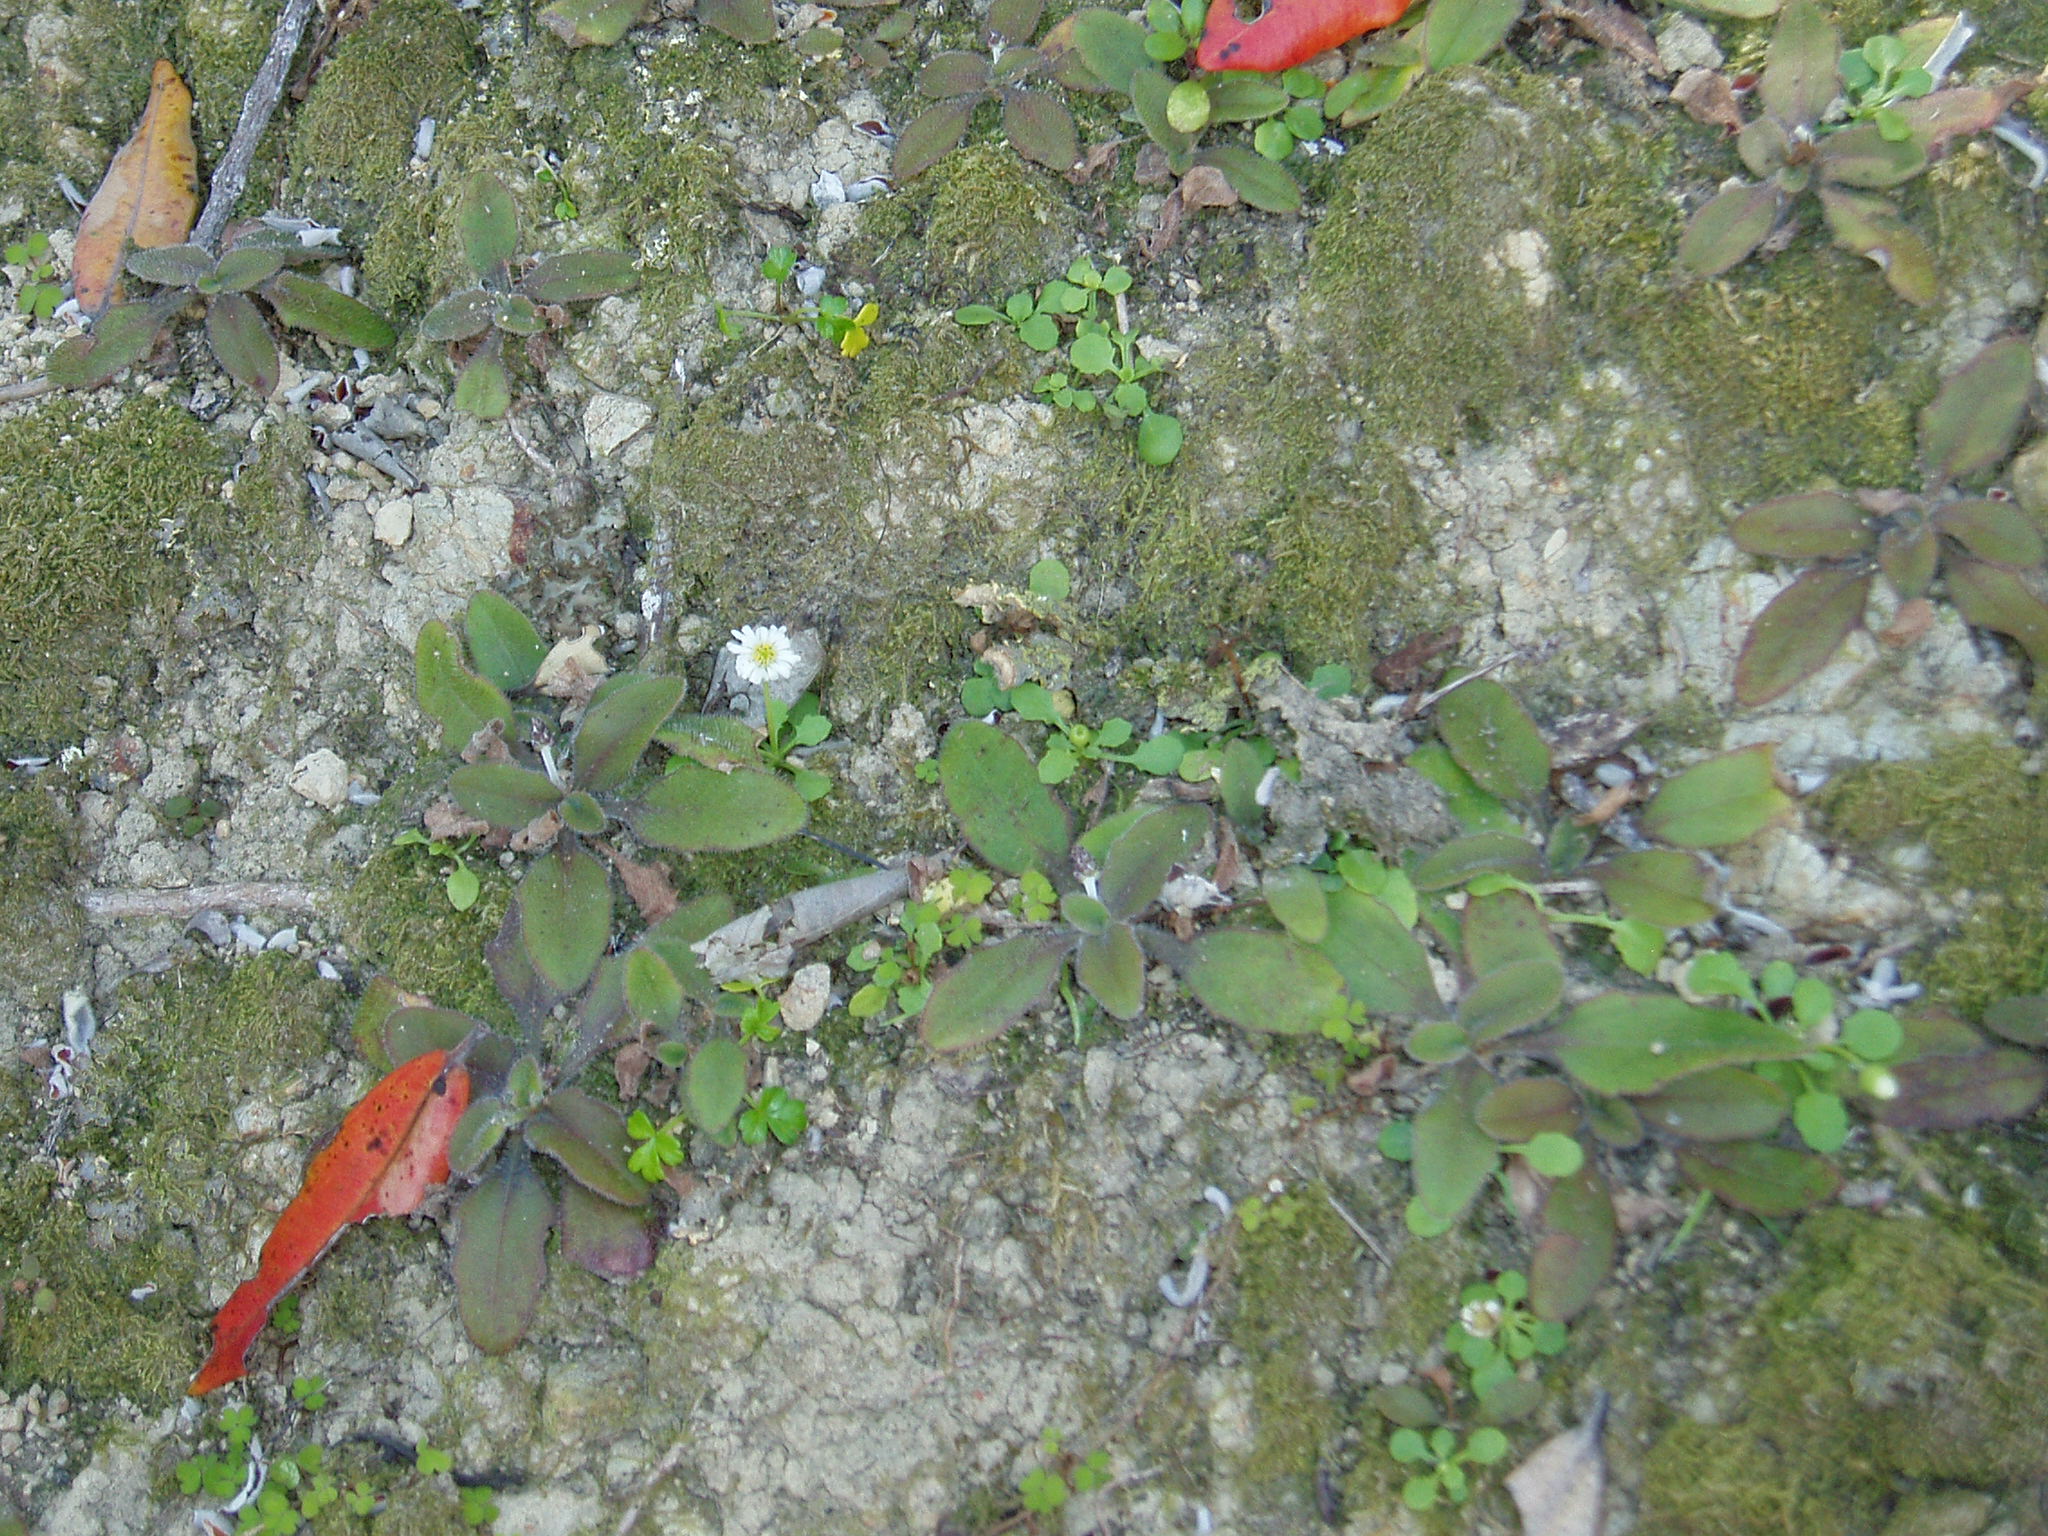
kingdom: Plantae
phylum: Marchantiophyta
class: Jungermanniopsida
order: Porellales
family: Lejeuneaceae
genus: Cheilolejeunea
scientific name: Cheilolejeunea
